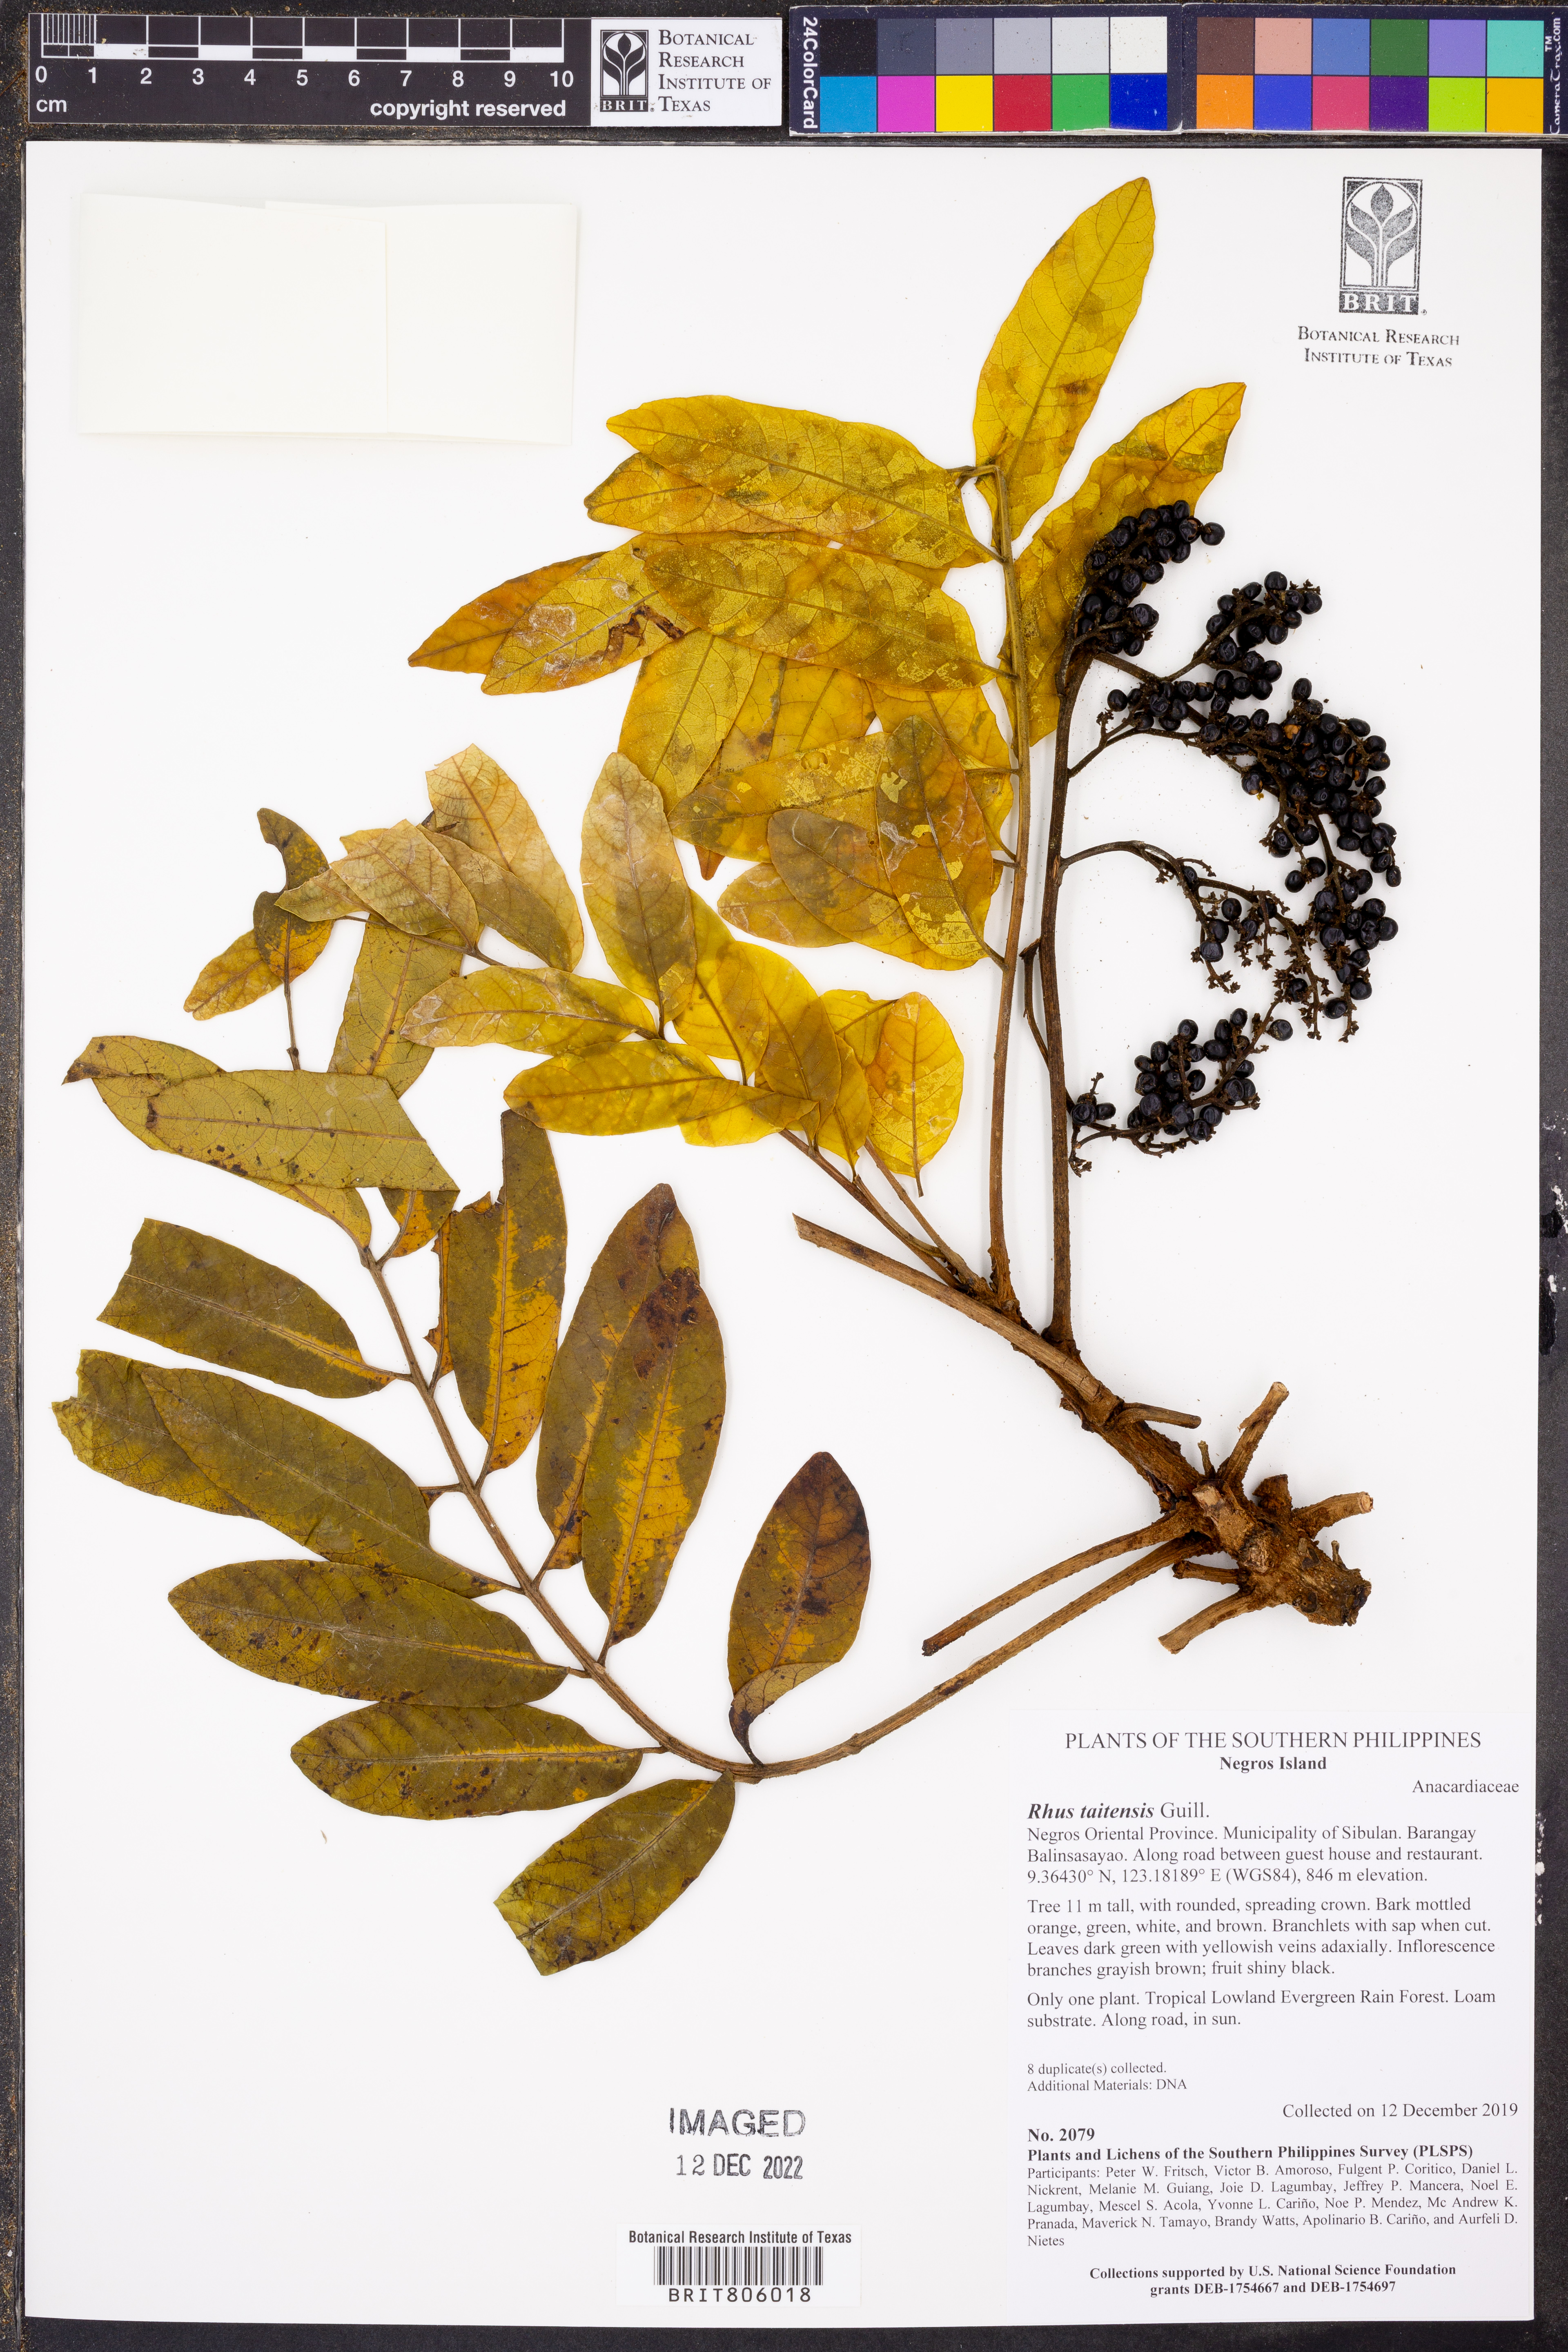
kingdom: Plantae
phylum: Tracheophyta
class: Magnoliopsida
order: Sapindales
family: Anacardiaceae
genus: Melanococca
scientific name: Melanococca tomentosa
